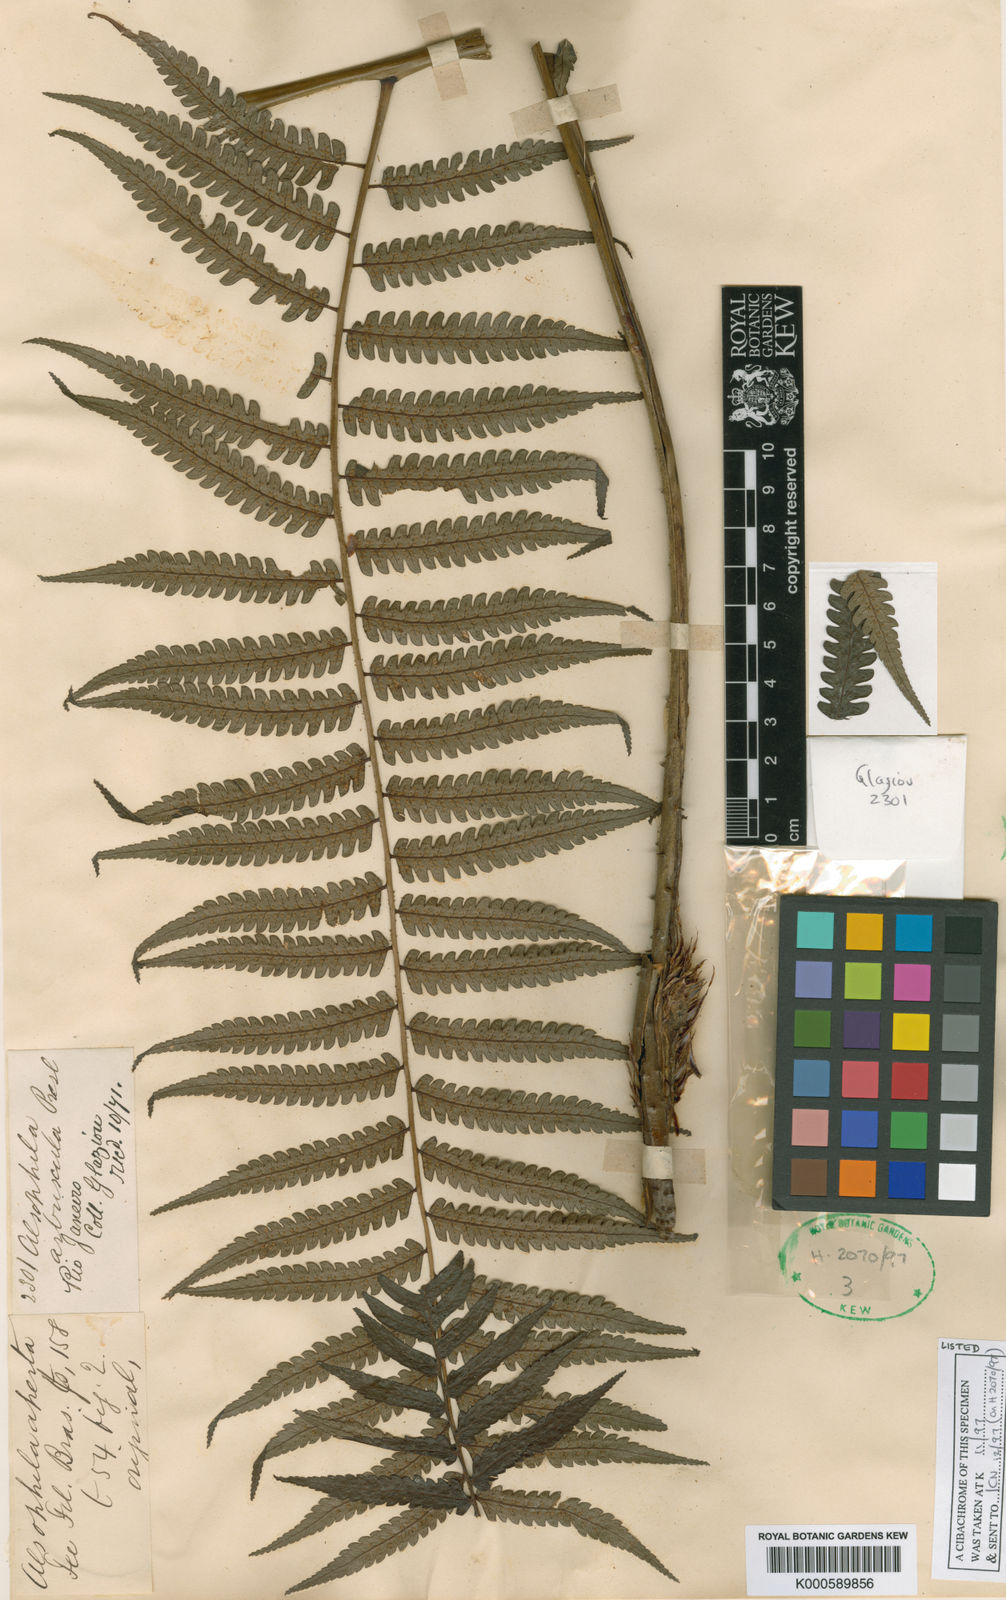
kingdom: Plantae
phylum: Tracheophyta
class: Polypodiopsida
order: Cyatheales
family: Cyatheaceae
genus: Cyathea
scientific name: Cyathea
